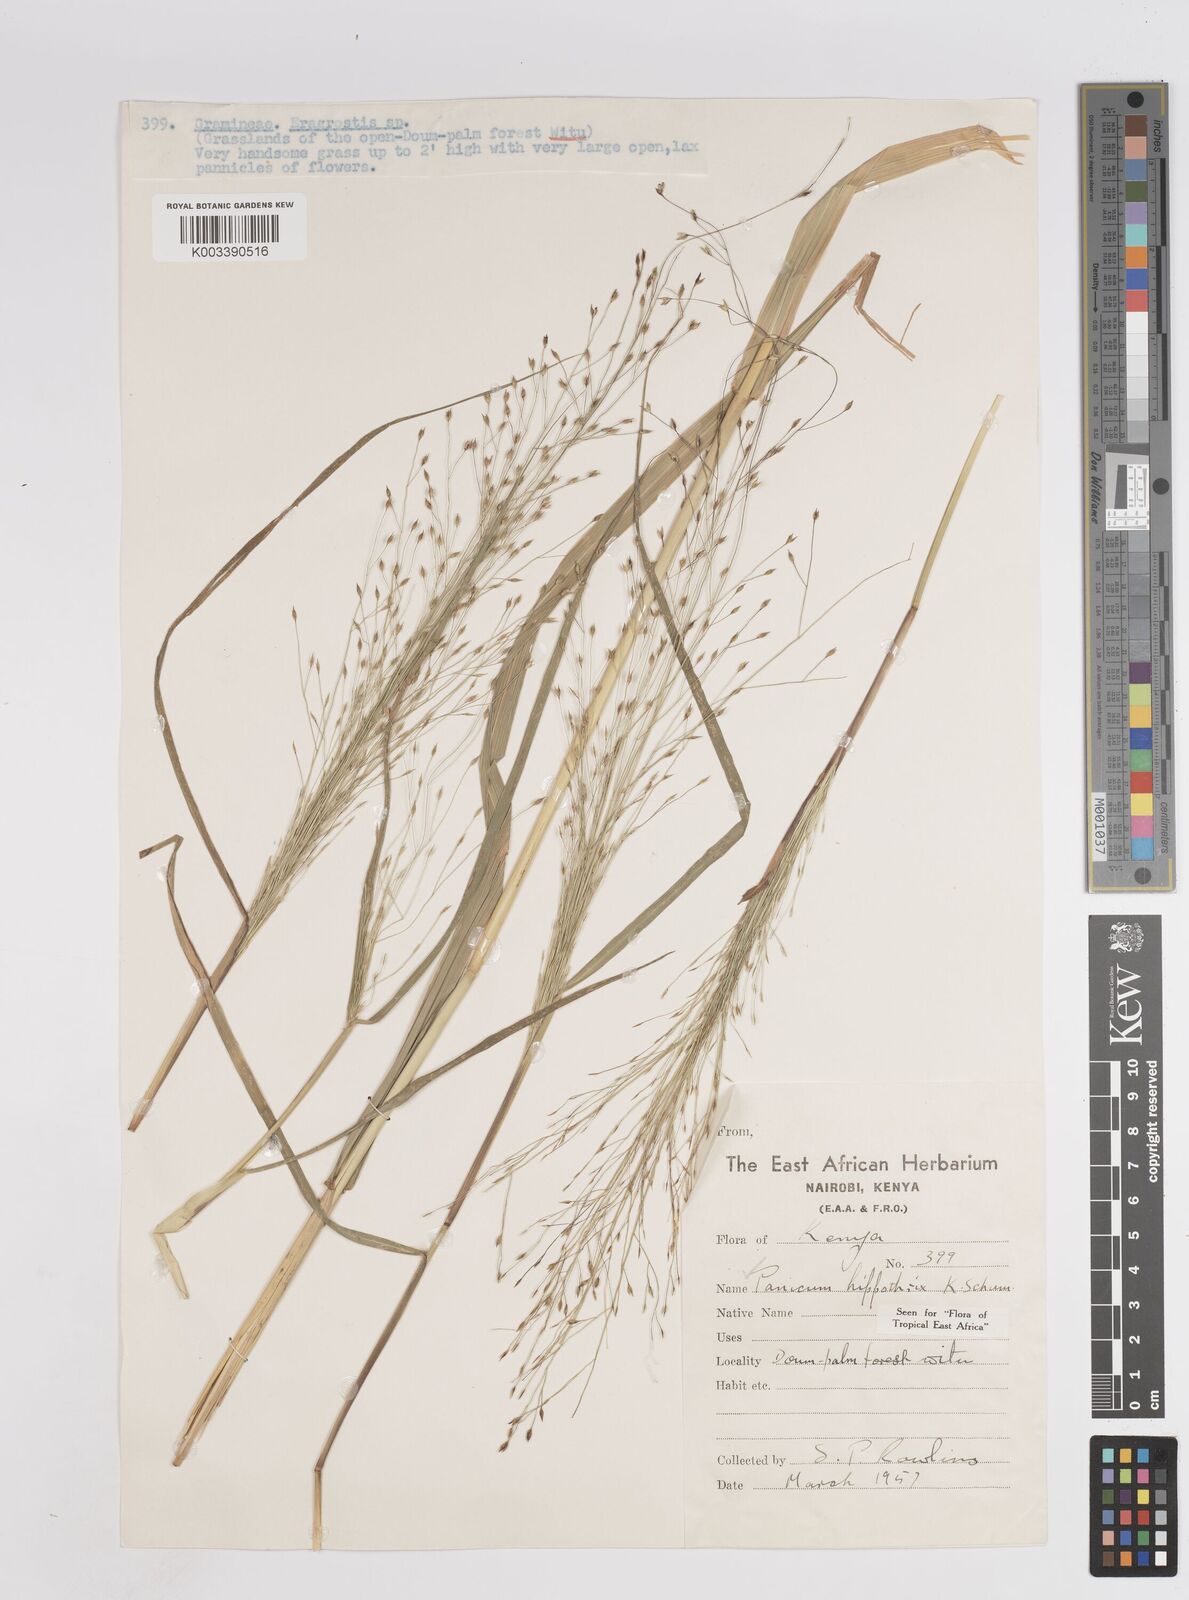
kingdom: Plantae
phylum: Tracheophyta
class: Liliopsida
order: Poales
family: Poaceae
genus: Panicum
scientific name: Panicum hippothrix
